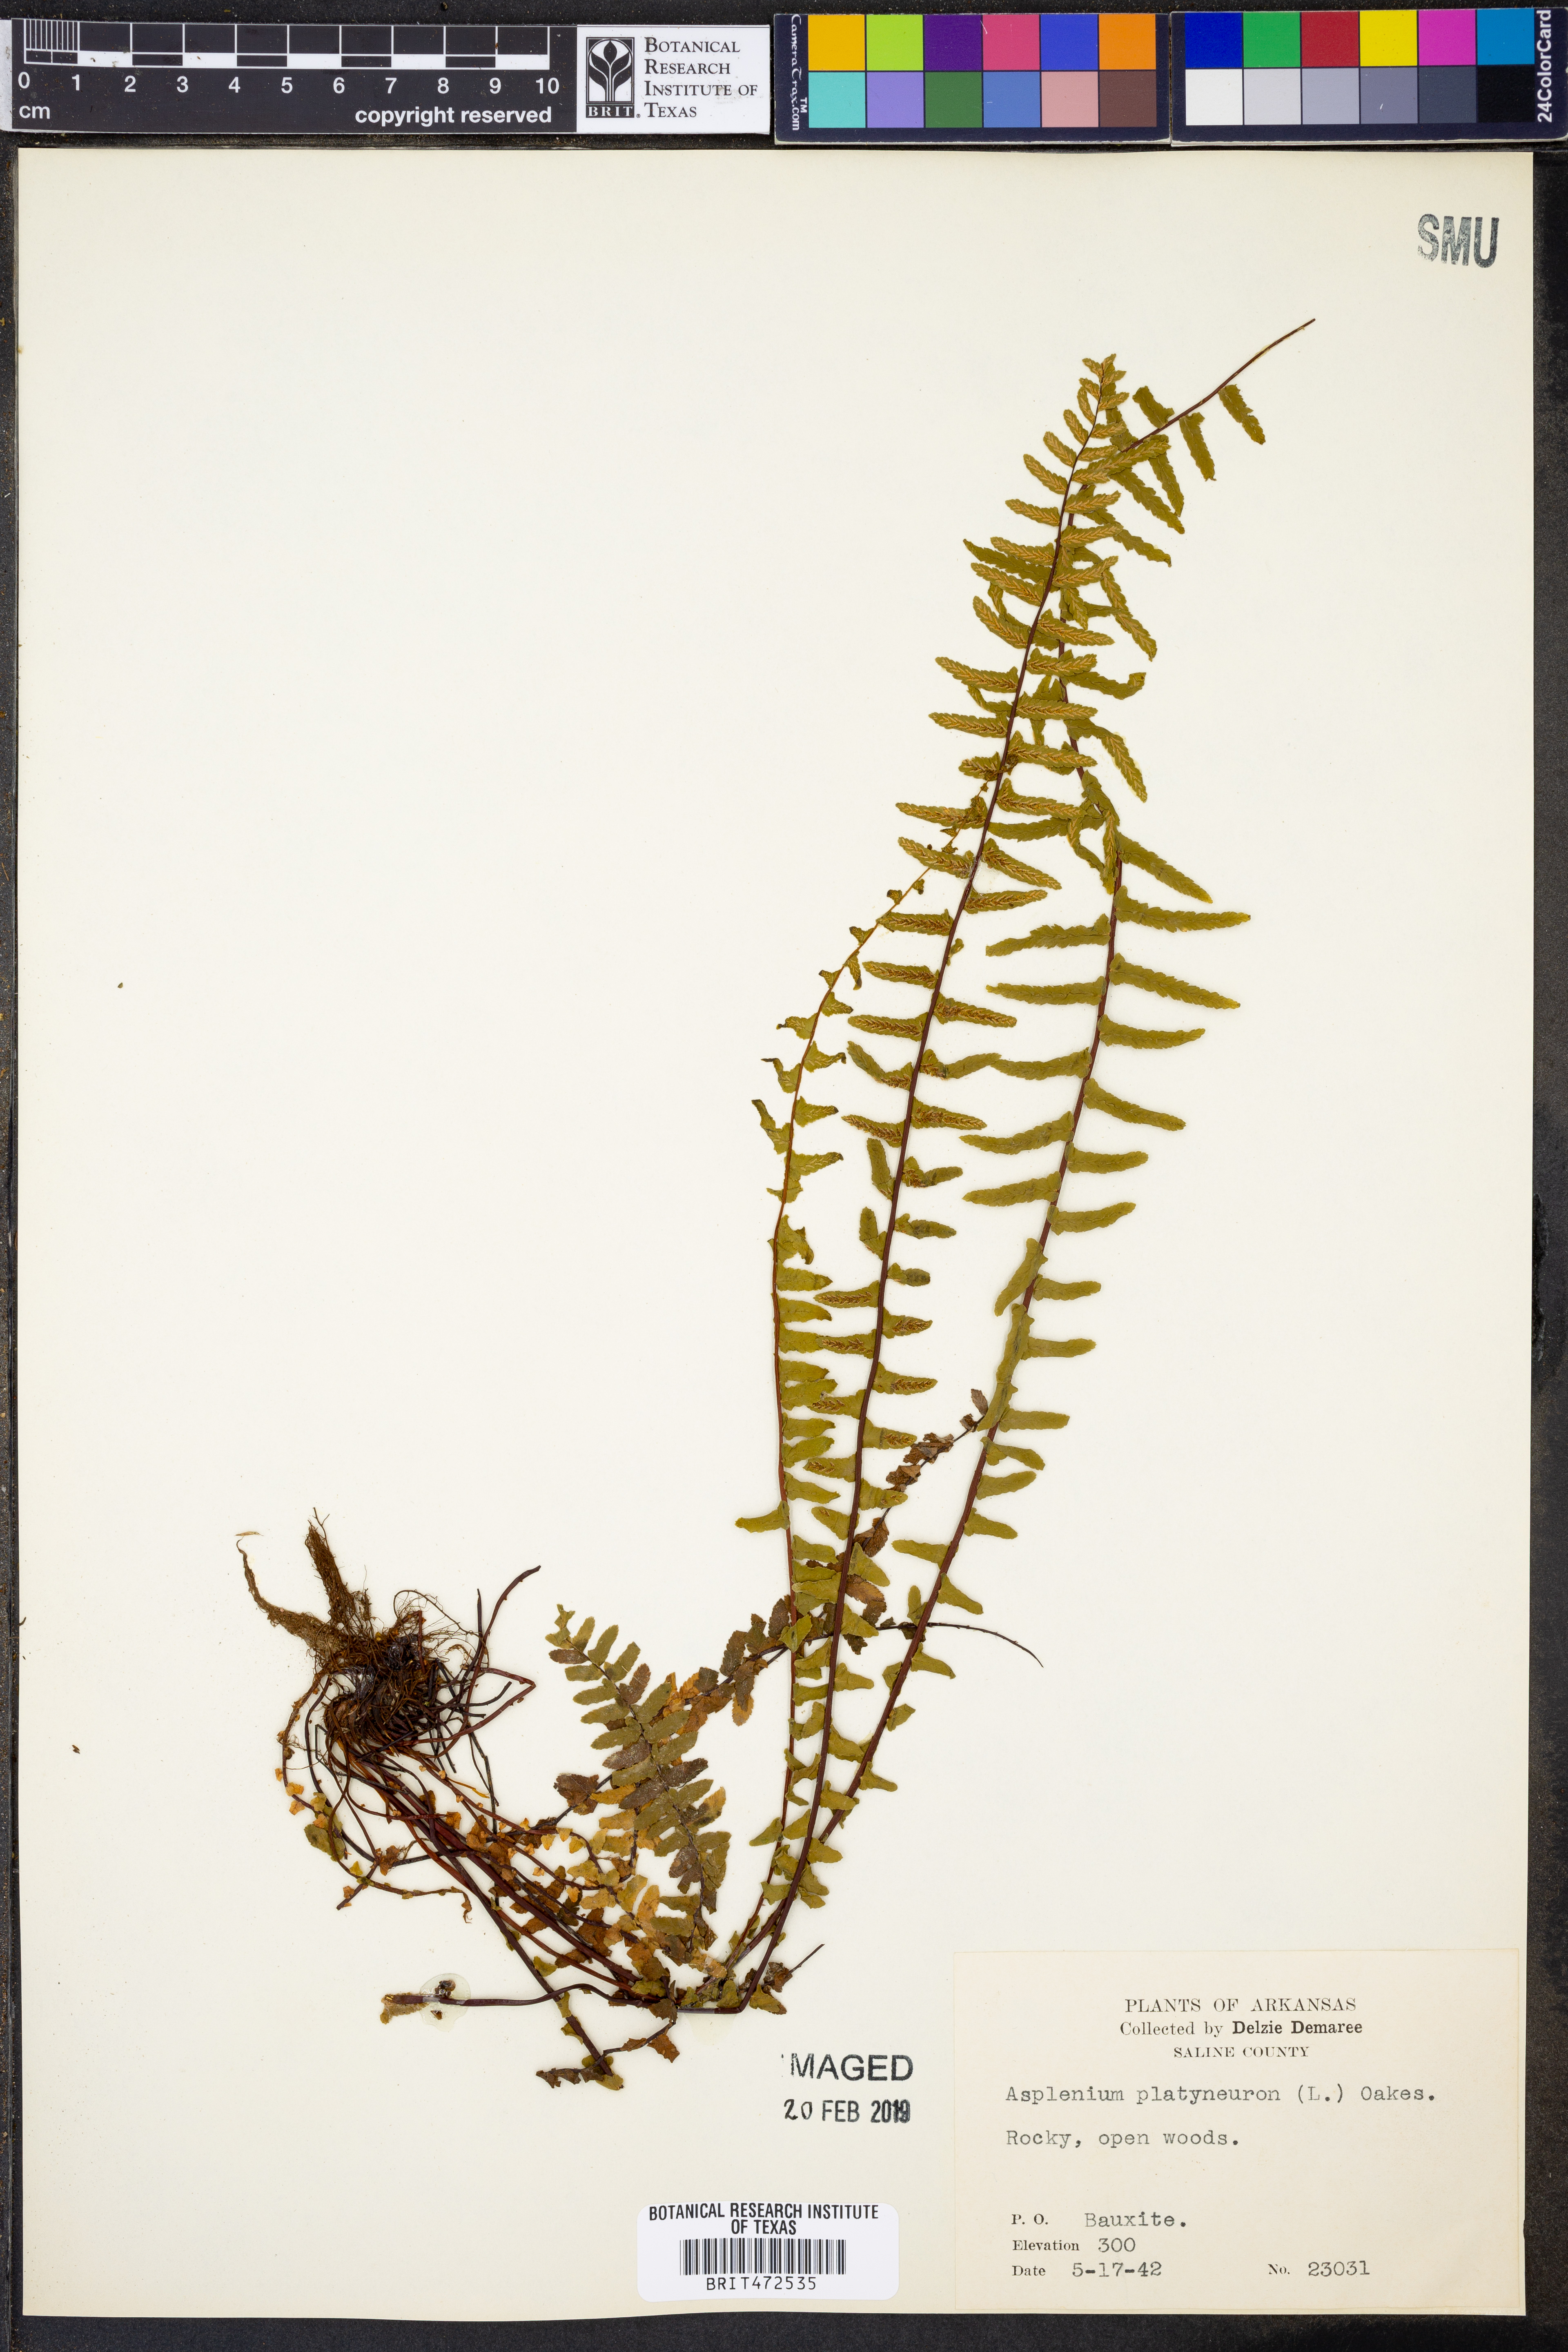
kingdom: Plantae
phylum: Tracheophyta
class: Polypodiopsida
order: Polypodiales
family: Aspleniaceae
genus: Asplenium
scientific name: Asplenium platyneuron
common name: Ebony spleenwort
